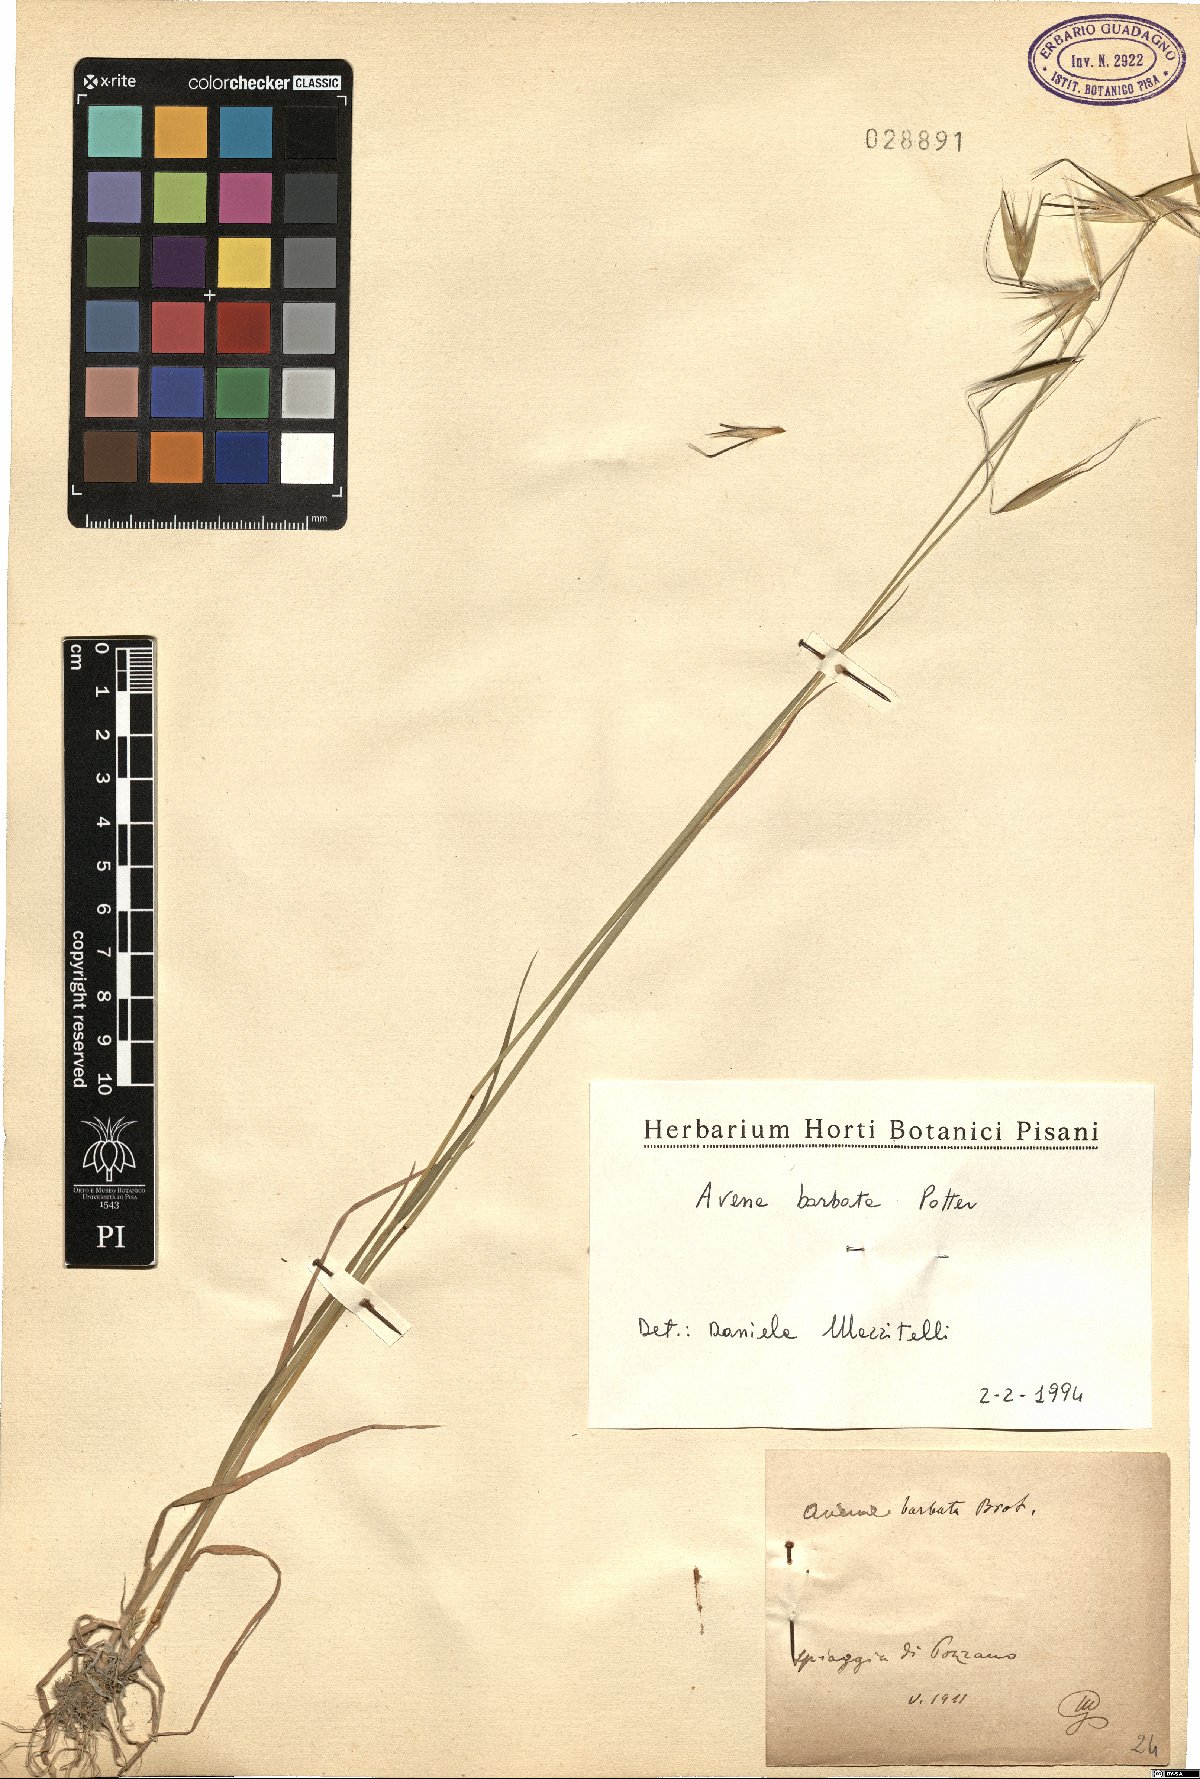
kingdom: Plantae
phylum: Tracheophyta
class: Liliopsida
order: Poales
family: Poaceae
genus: Avena
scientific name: Avena barbata
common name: Slender oat
